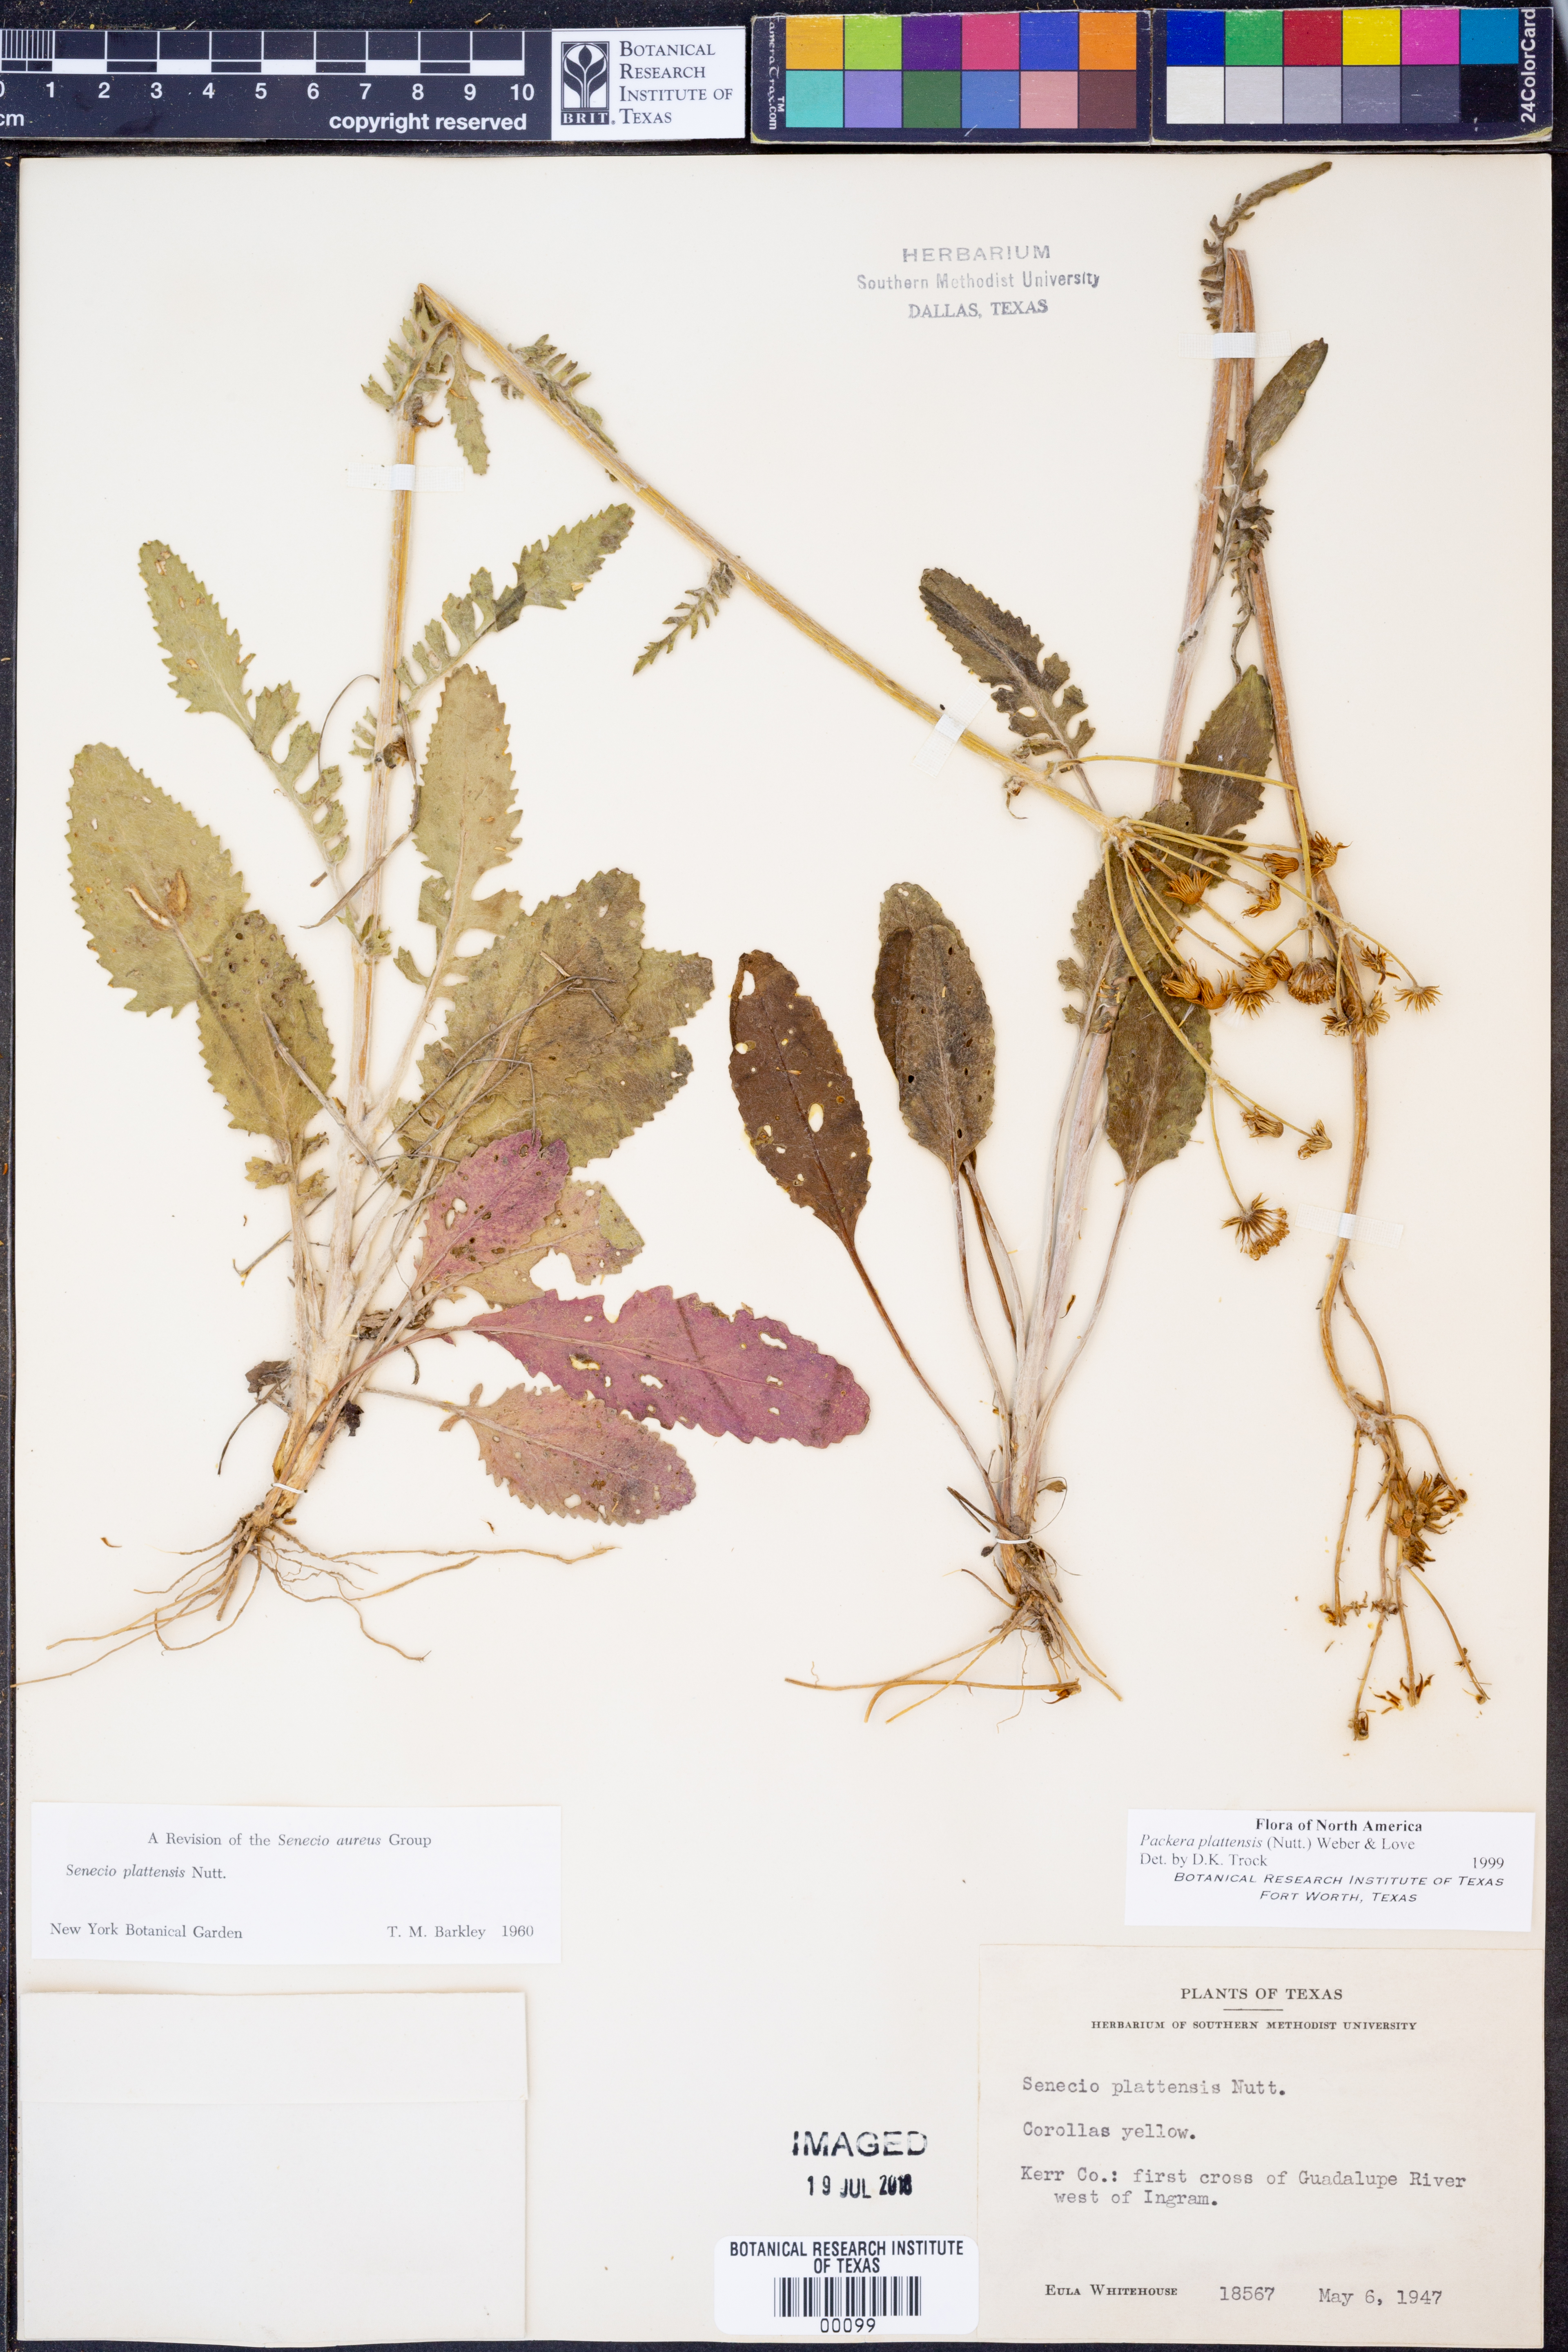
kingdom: Plantae
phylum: Tracheophyta
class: Magnoliopsida
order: Asterales
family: Asteraceae
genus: Packera
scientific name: Packera plattensis
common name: Prairie groundsel
